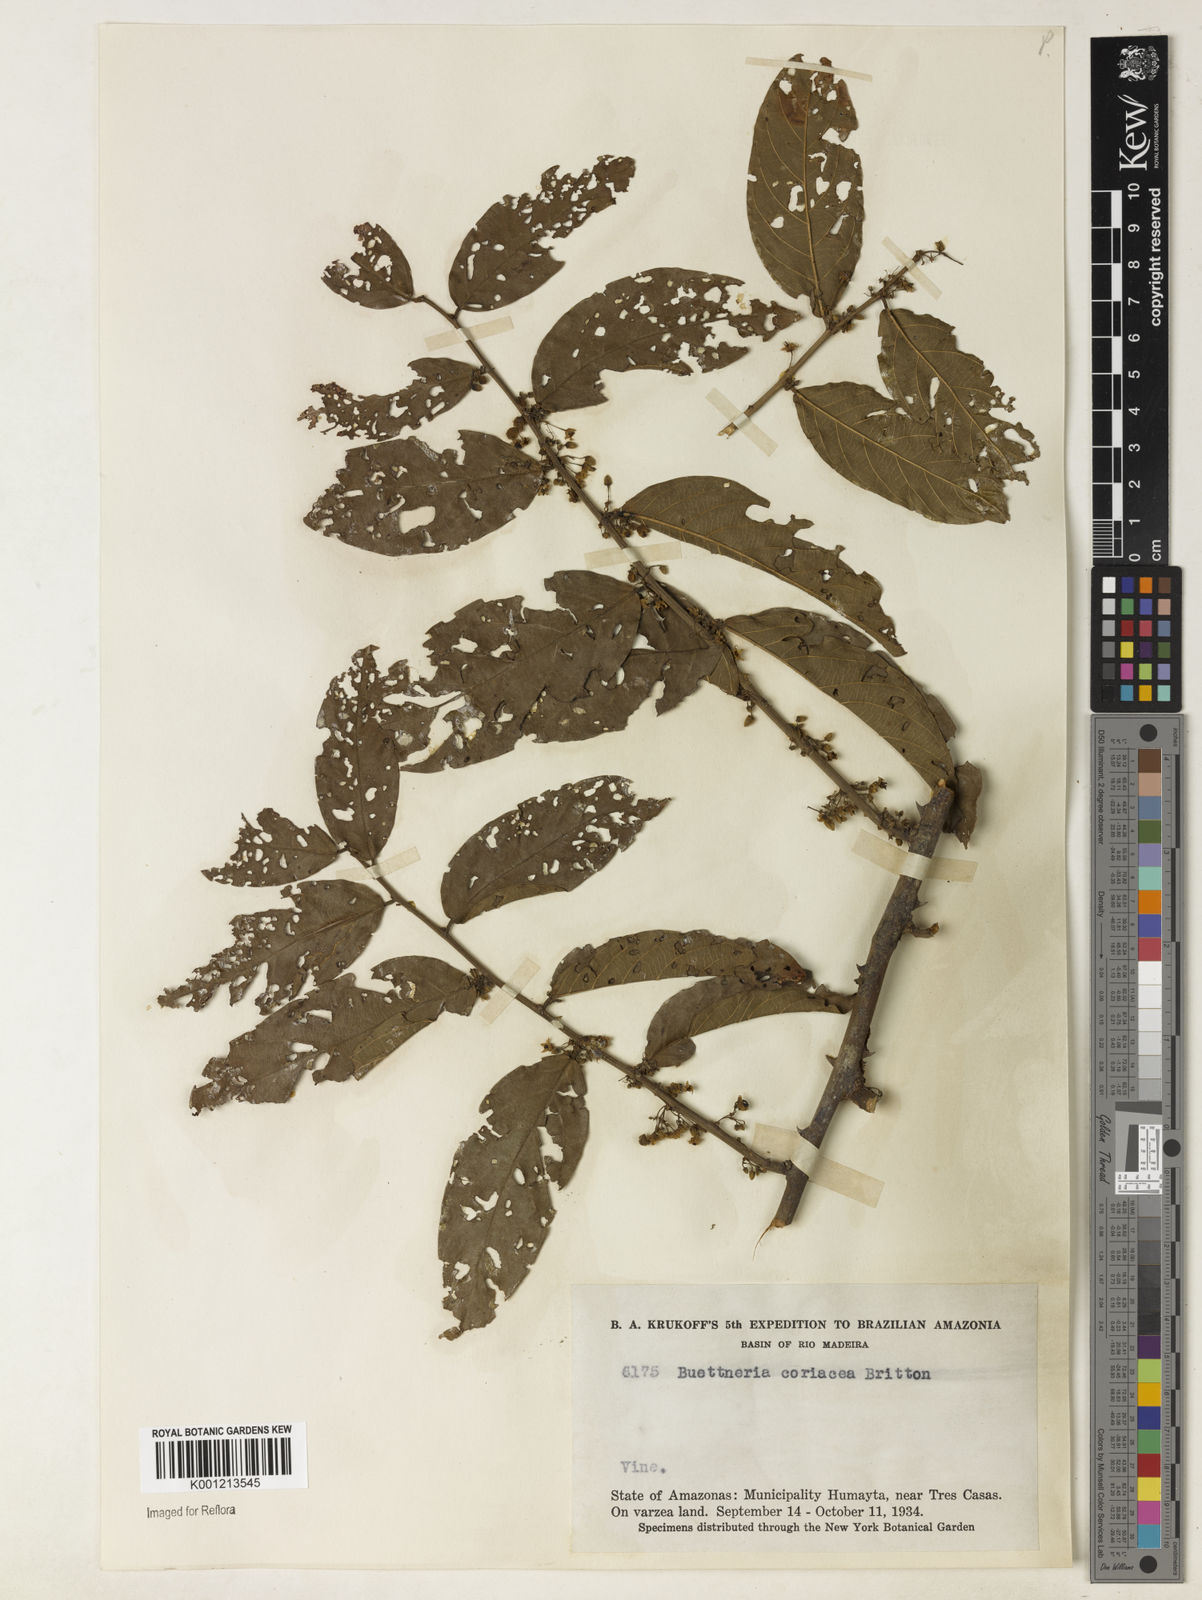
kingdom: Plantae
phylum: Tracheophyta
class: Magnoliopsida
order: Malvales
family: Malvaceae
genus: Byttneria
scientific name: Byttneria coriacea
